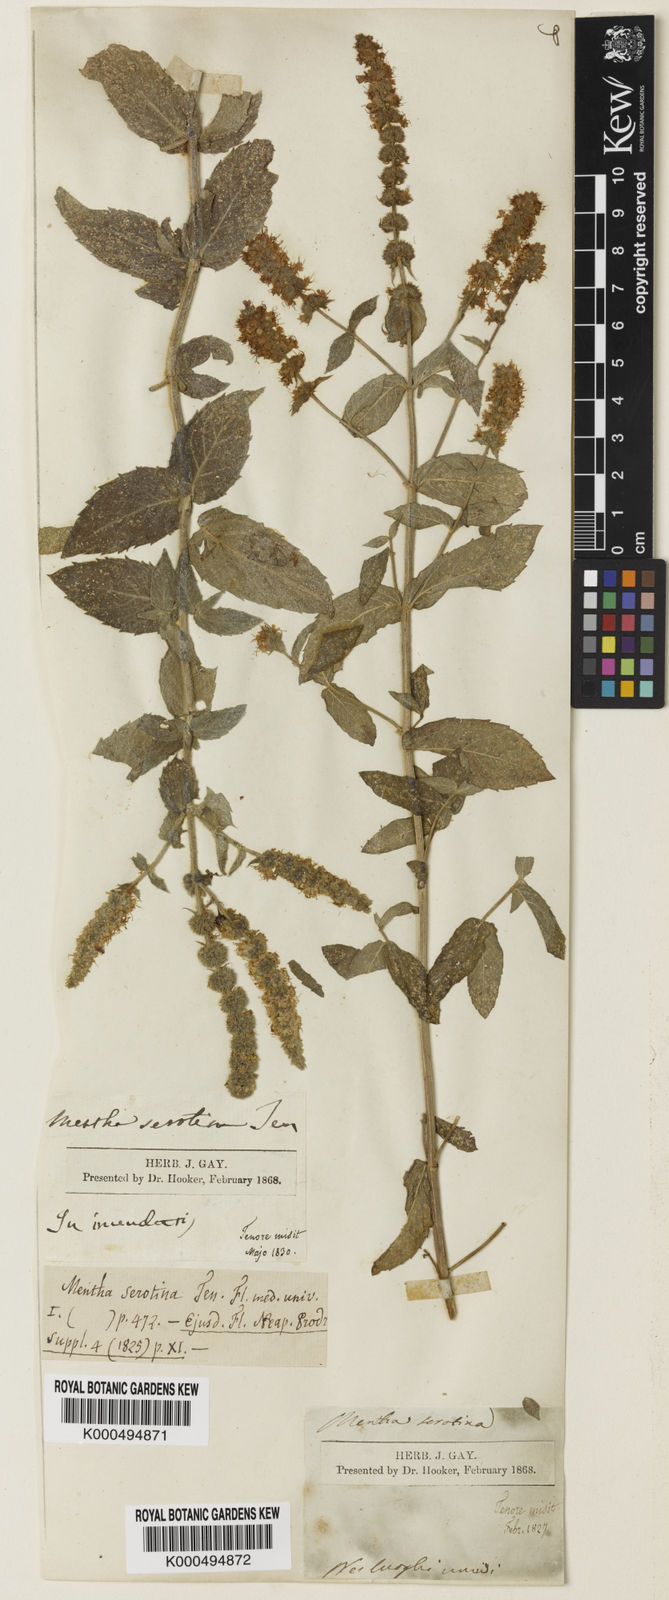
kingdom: Plantae
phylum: Tracheophyta
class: Magnoliopsida
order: Lamiales
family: Lamiaceae
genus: Mentha
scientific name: Mentha rotundifolia
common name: Bigleaf mint
